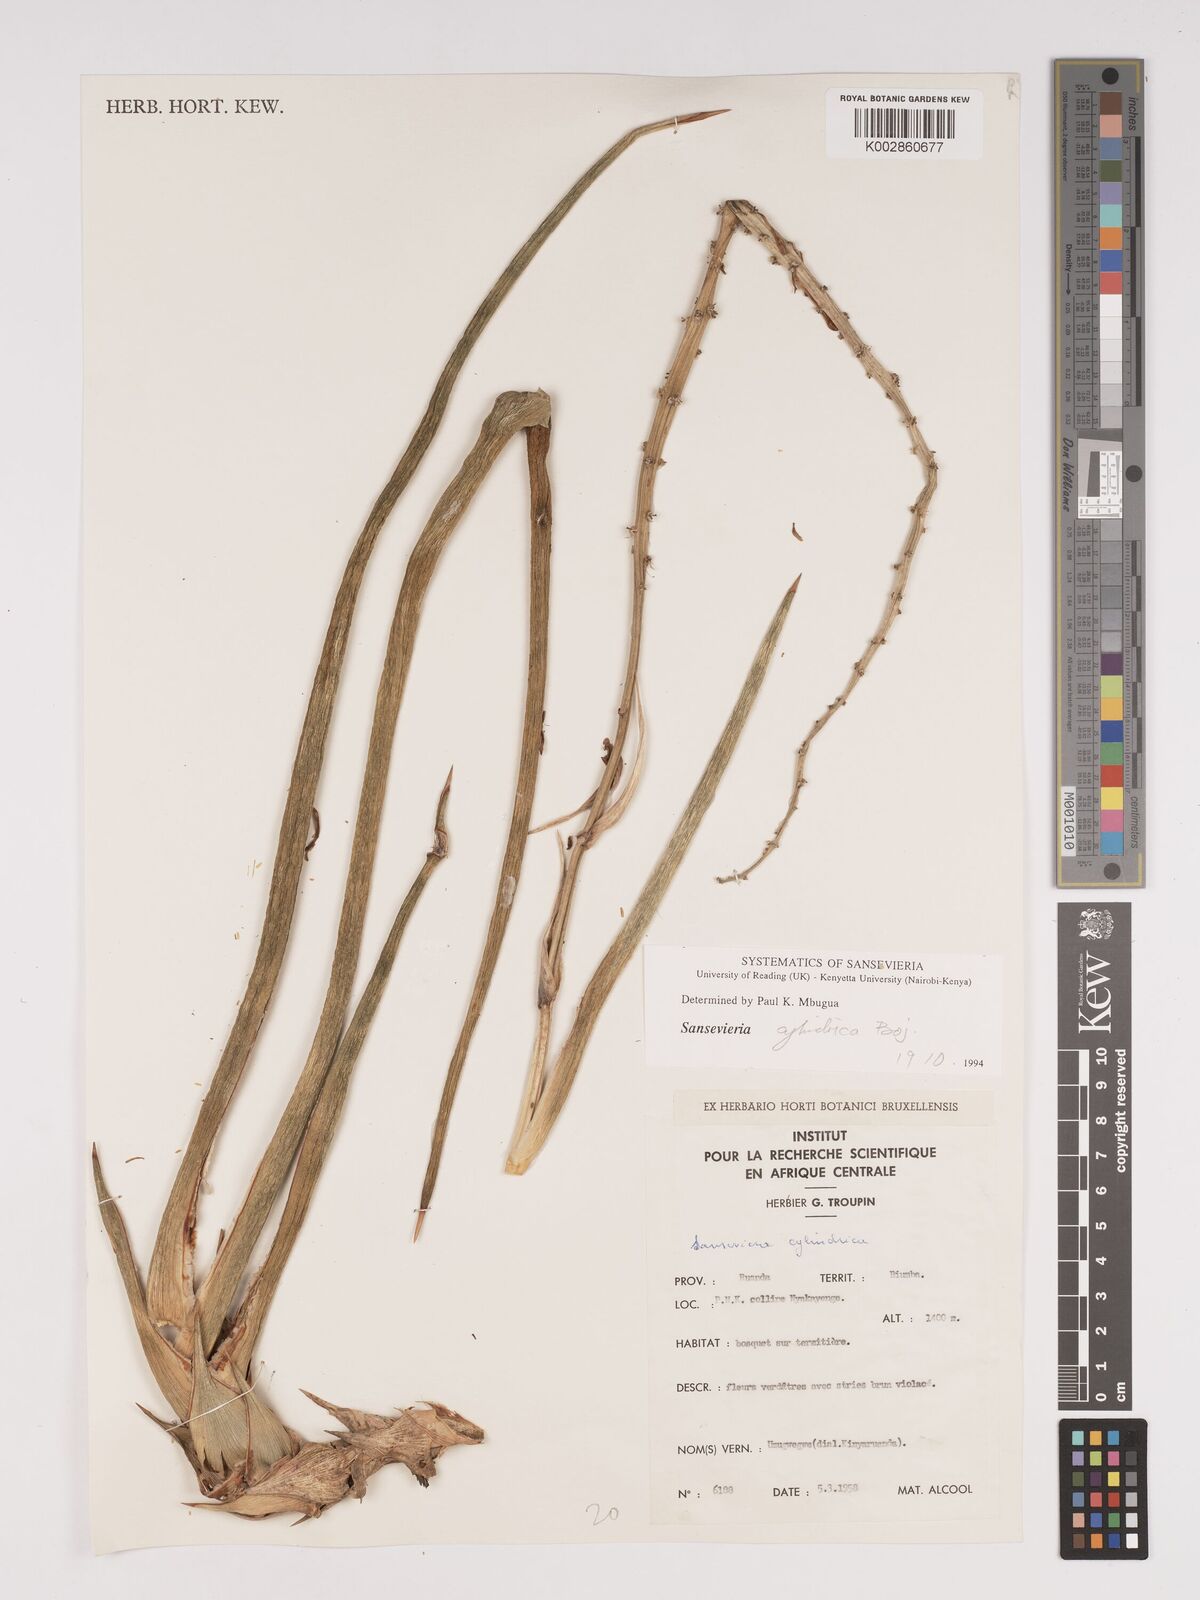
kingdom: Plantae
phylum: Tracheophyta
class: Liliopsida
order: Asparagales
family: Asparagaceae
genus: Dracaena
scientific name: Dracaena bicolor
